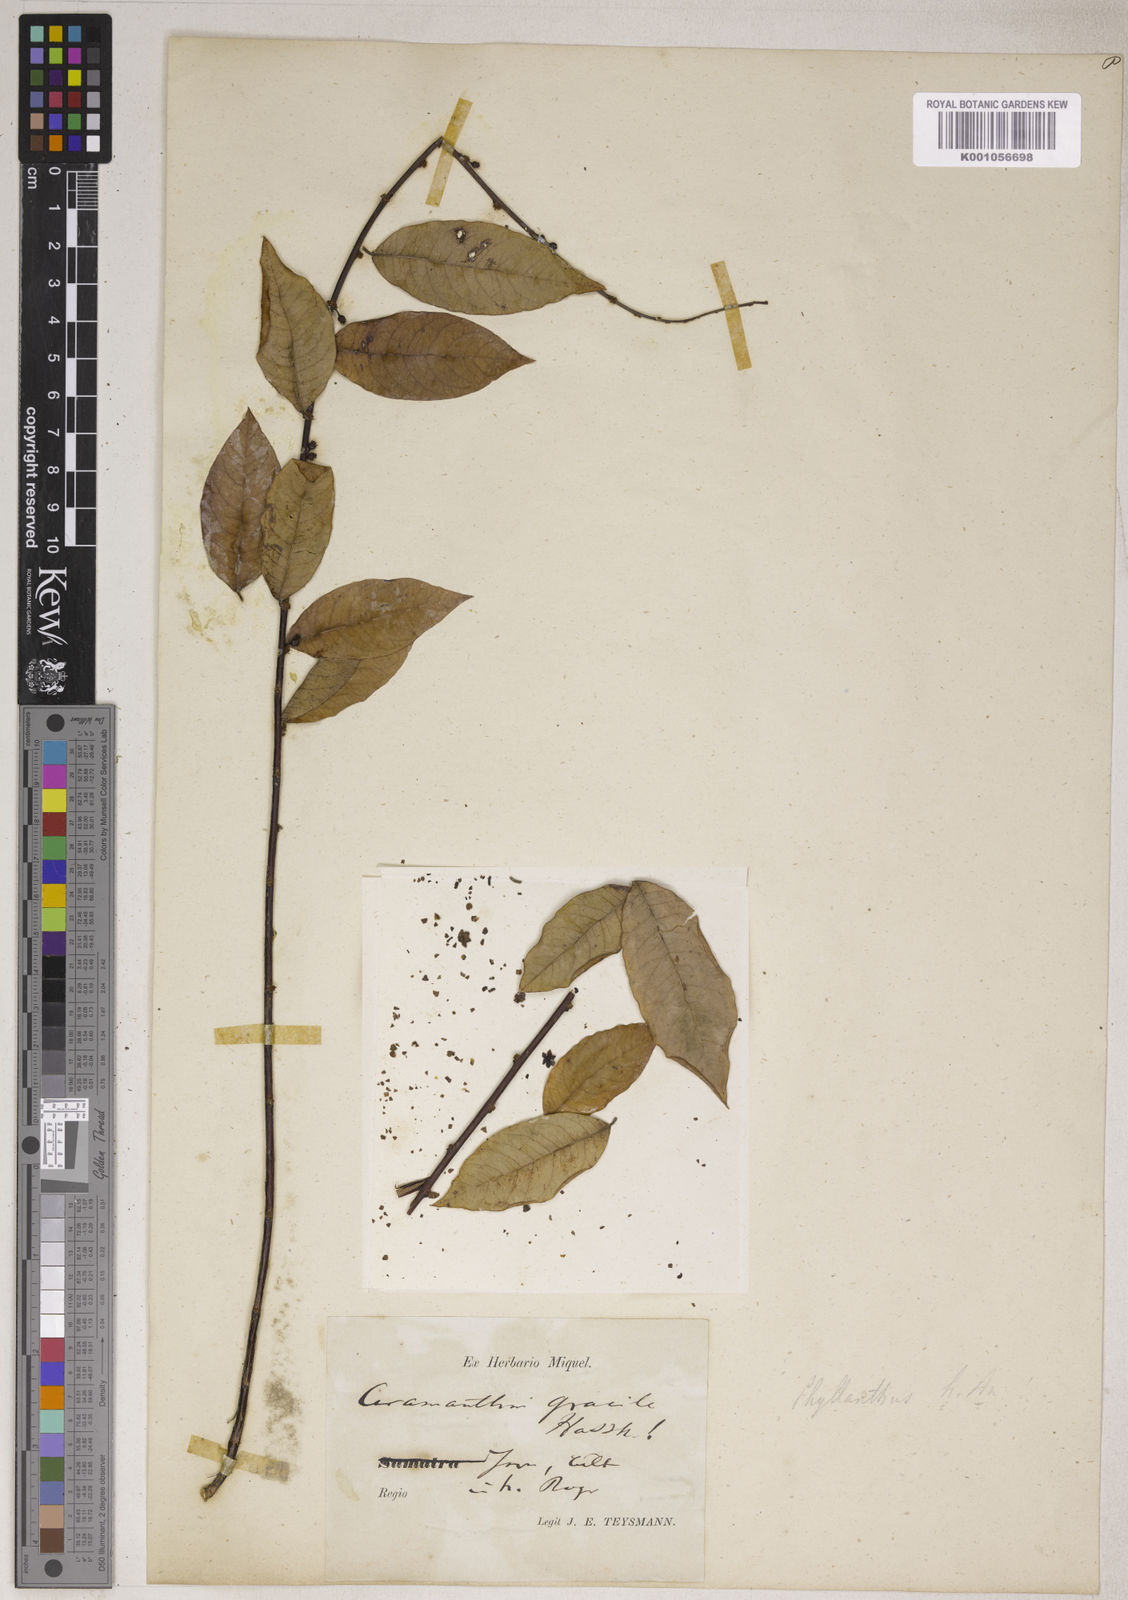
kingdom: Plantae
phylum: Tracheophyta
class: Magnoliopsida
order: Malpighiales
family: Phyllanthaceae
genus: Phyllanthus
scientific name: Phyllanthus albidiscus
